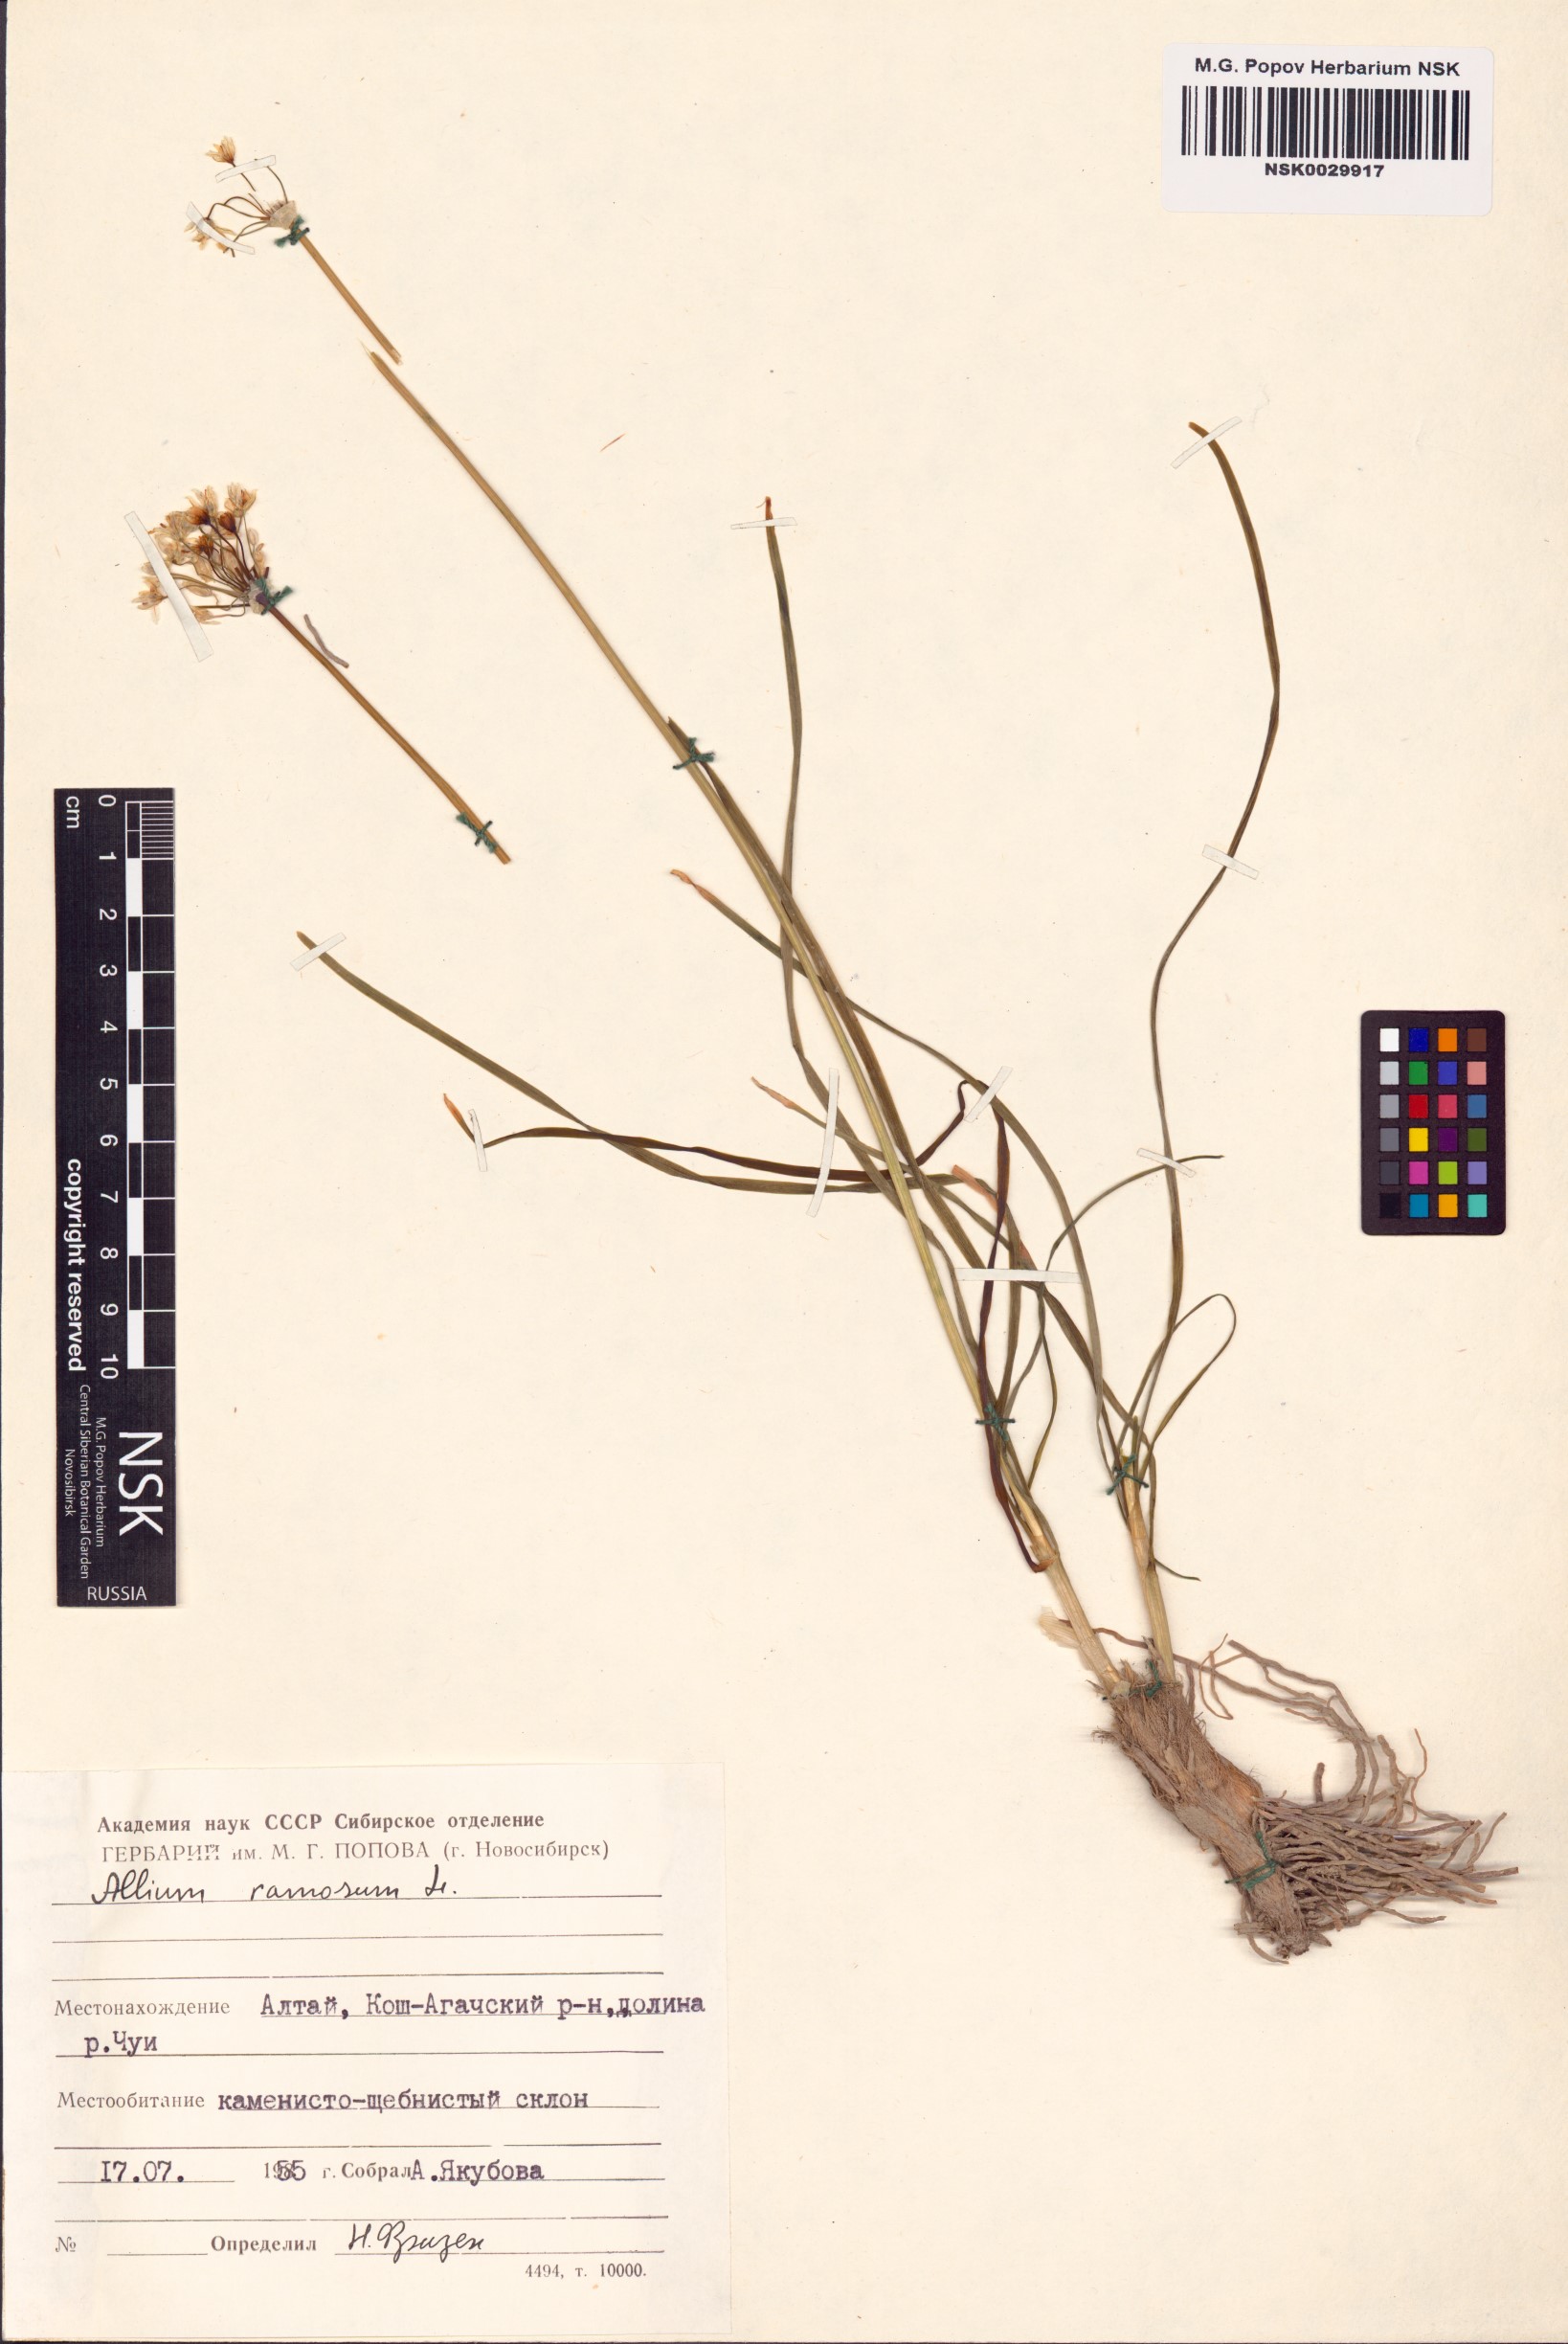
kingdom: Plantae
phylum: Tracheophyta
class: Liliopsida
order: Asparagales
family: Amaryllidaceae
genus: Allium
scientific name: Allium ramosum
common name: Fragrant garlic
